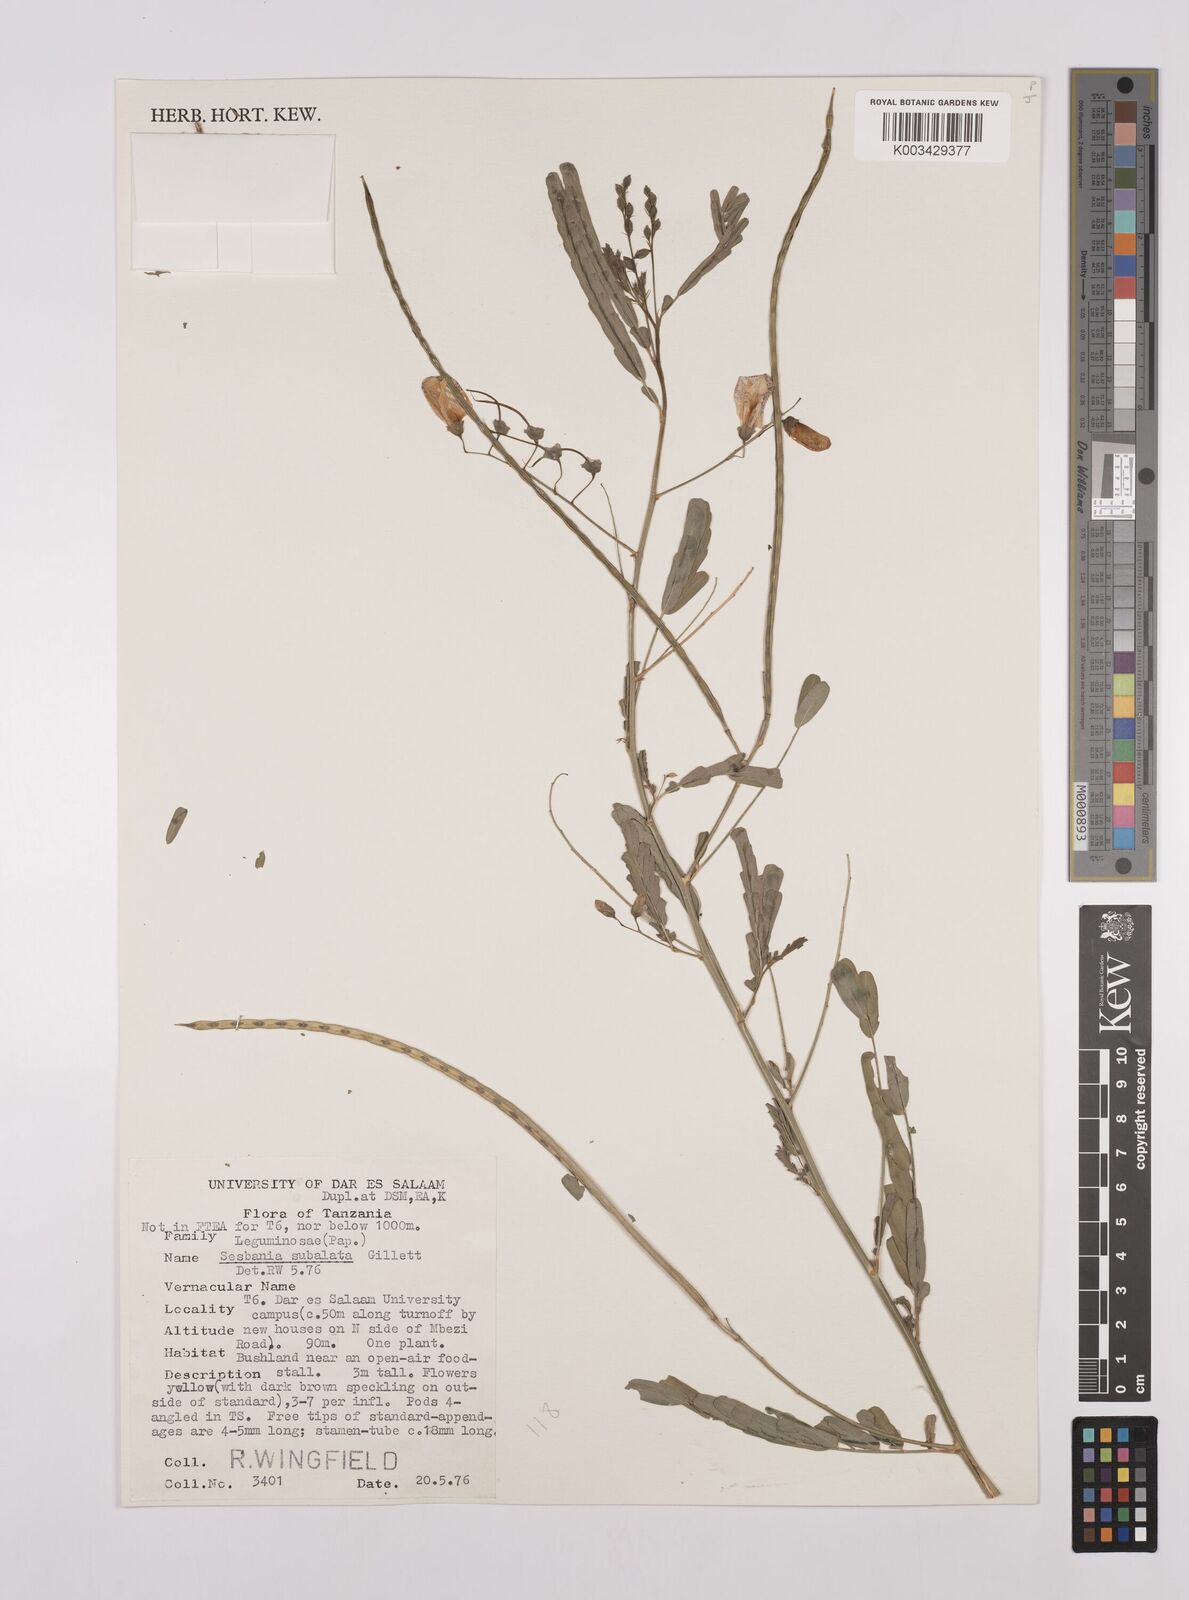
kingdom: Plantae
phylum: Tracheophyta
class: Magnoliopsida
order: Fabales
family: Fabaceae
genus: Sesbania
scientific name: Sesbania subalata
